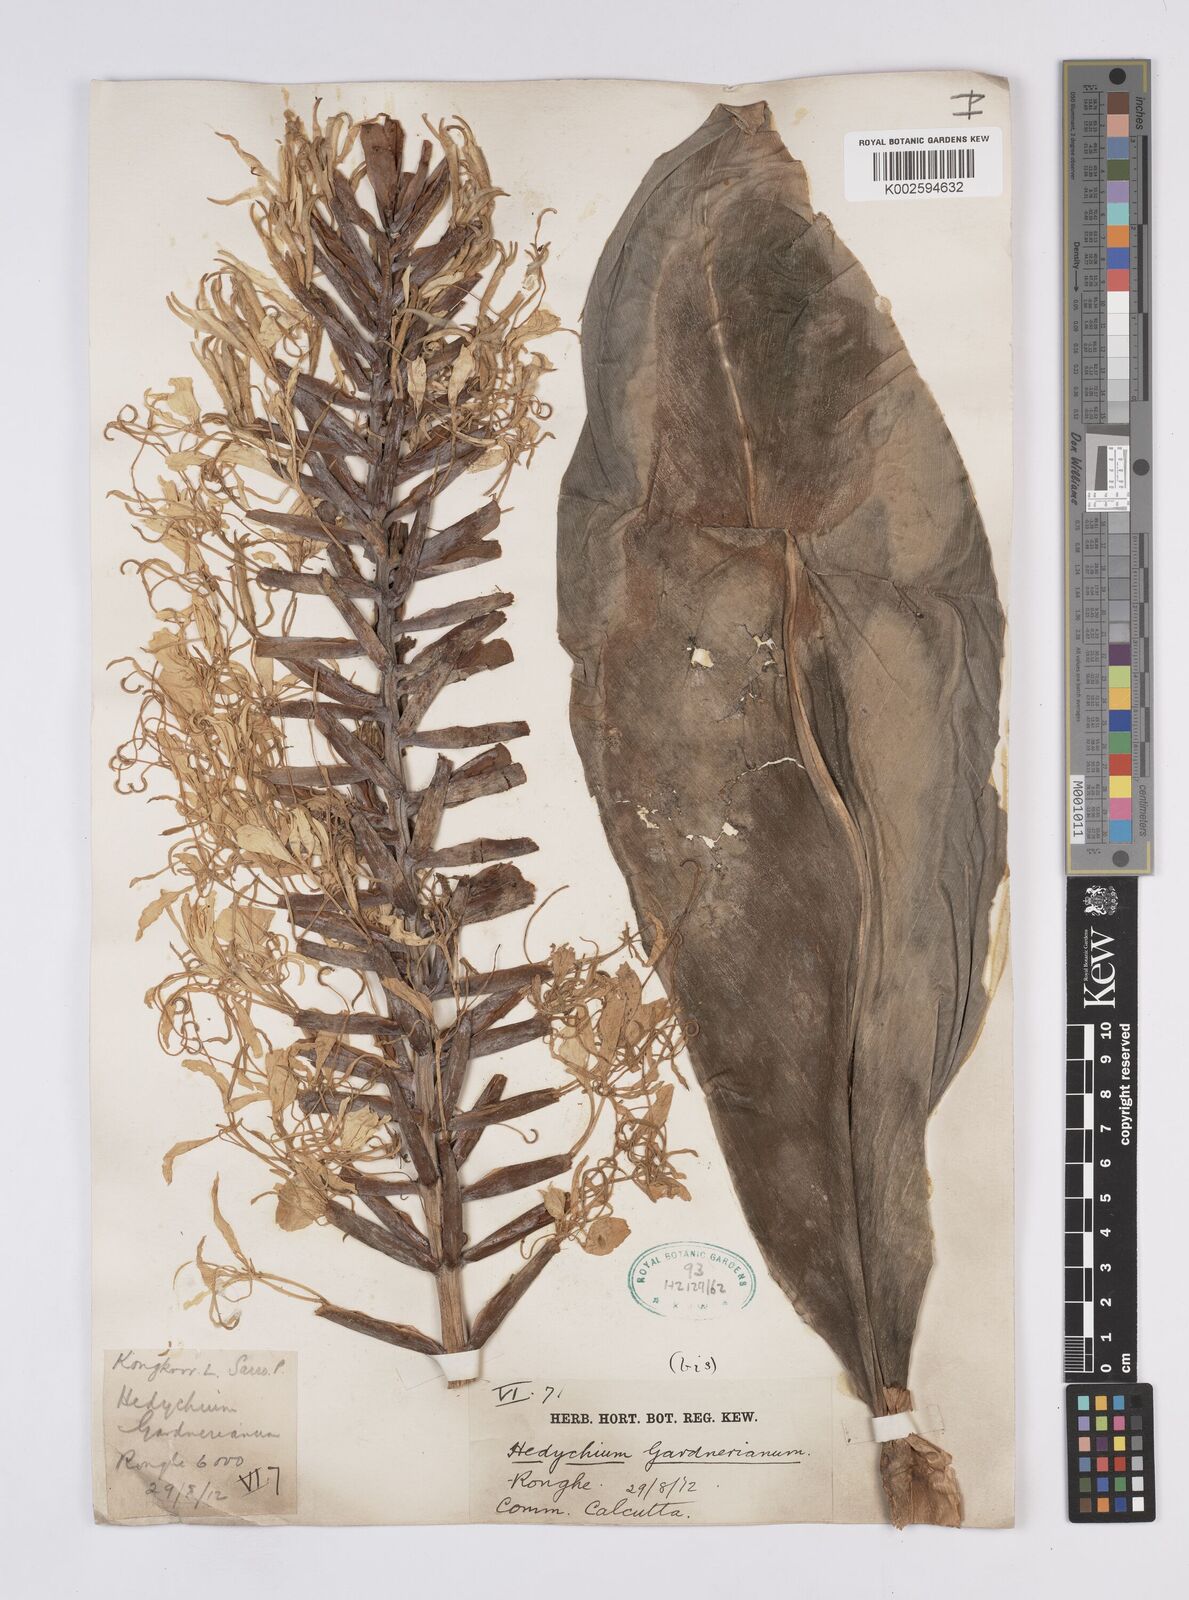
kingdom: Plantae
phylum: Tracheophyta
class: Liliopsida
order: Zingiberales
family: Zingiberaceae
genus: Hedychium
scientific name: Hedychium gardnerianum
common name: Himalayan ginger
